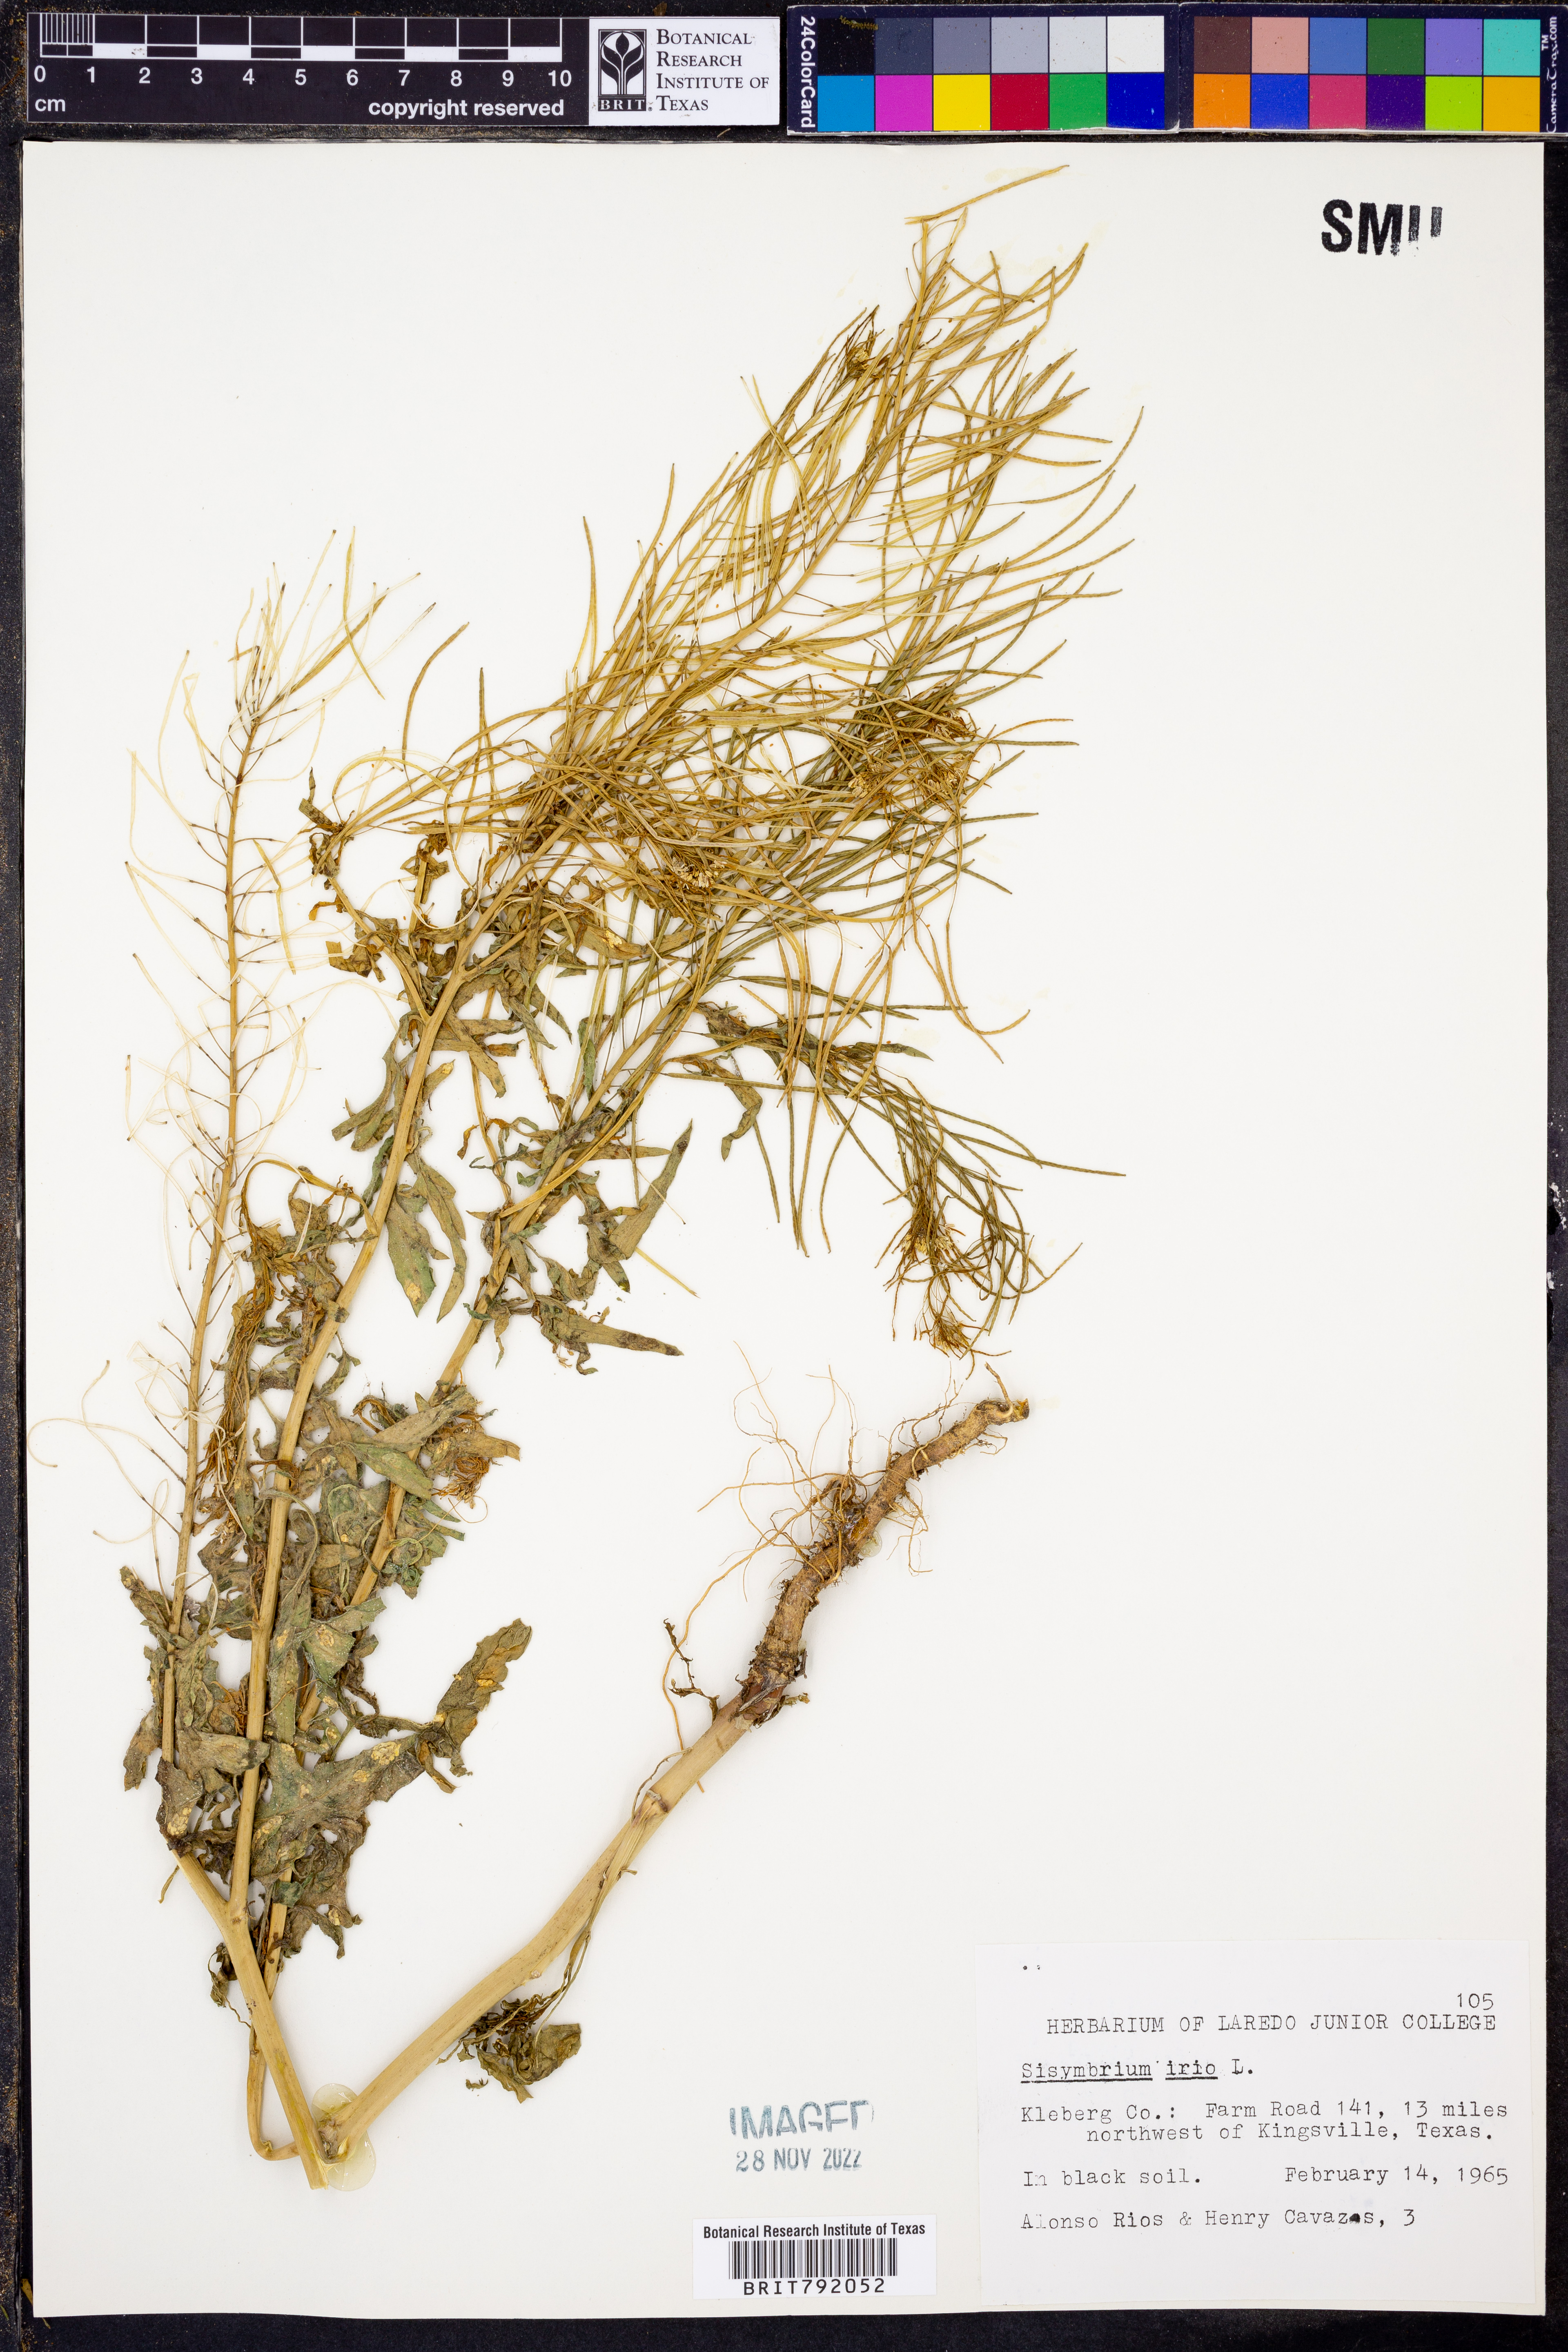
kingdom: Plantae
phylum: Tracheophyta
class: Magnoliopsida
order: Brassicales
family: Brassicaceae
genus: Sisymbrium
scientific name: Sisymbrium irio
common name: London rocket
